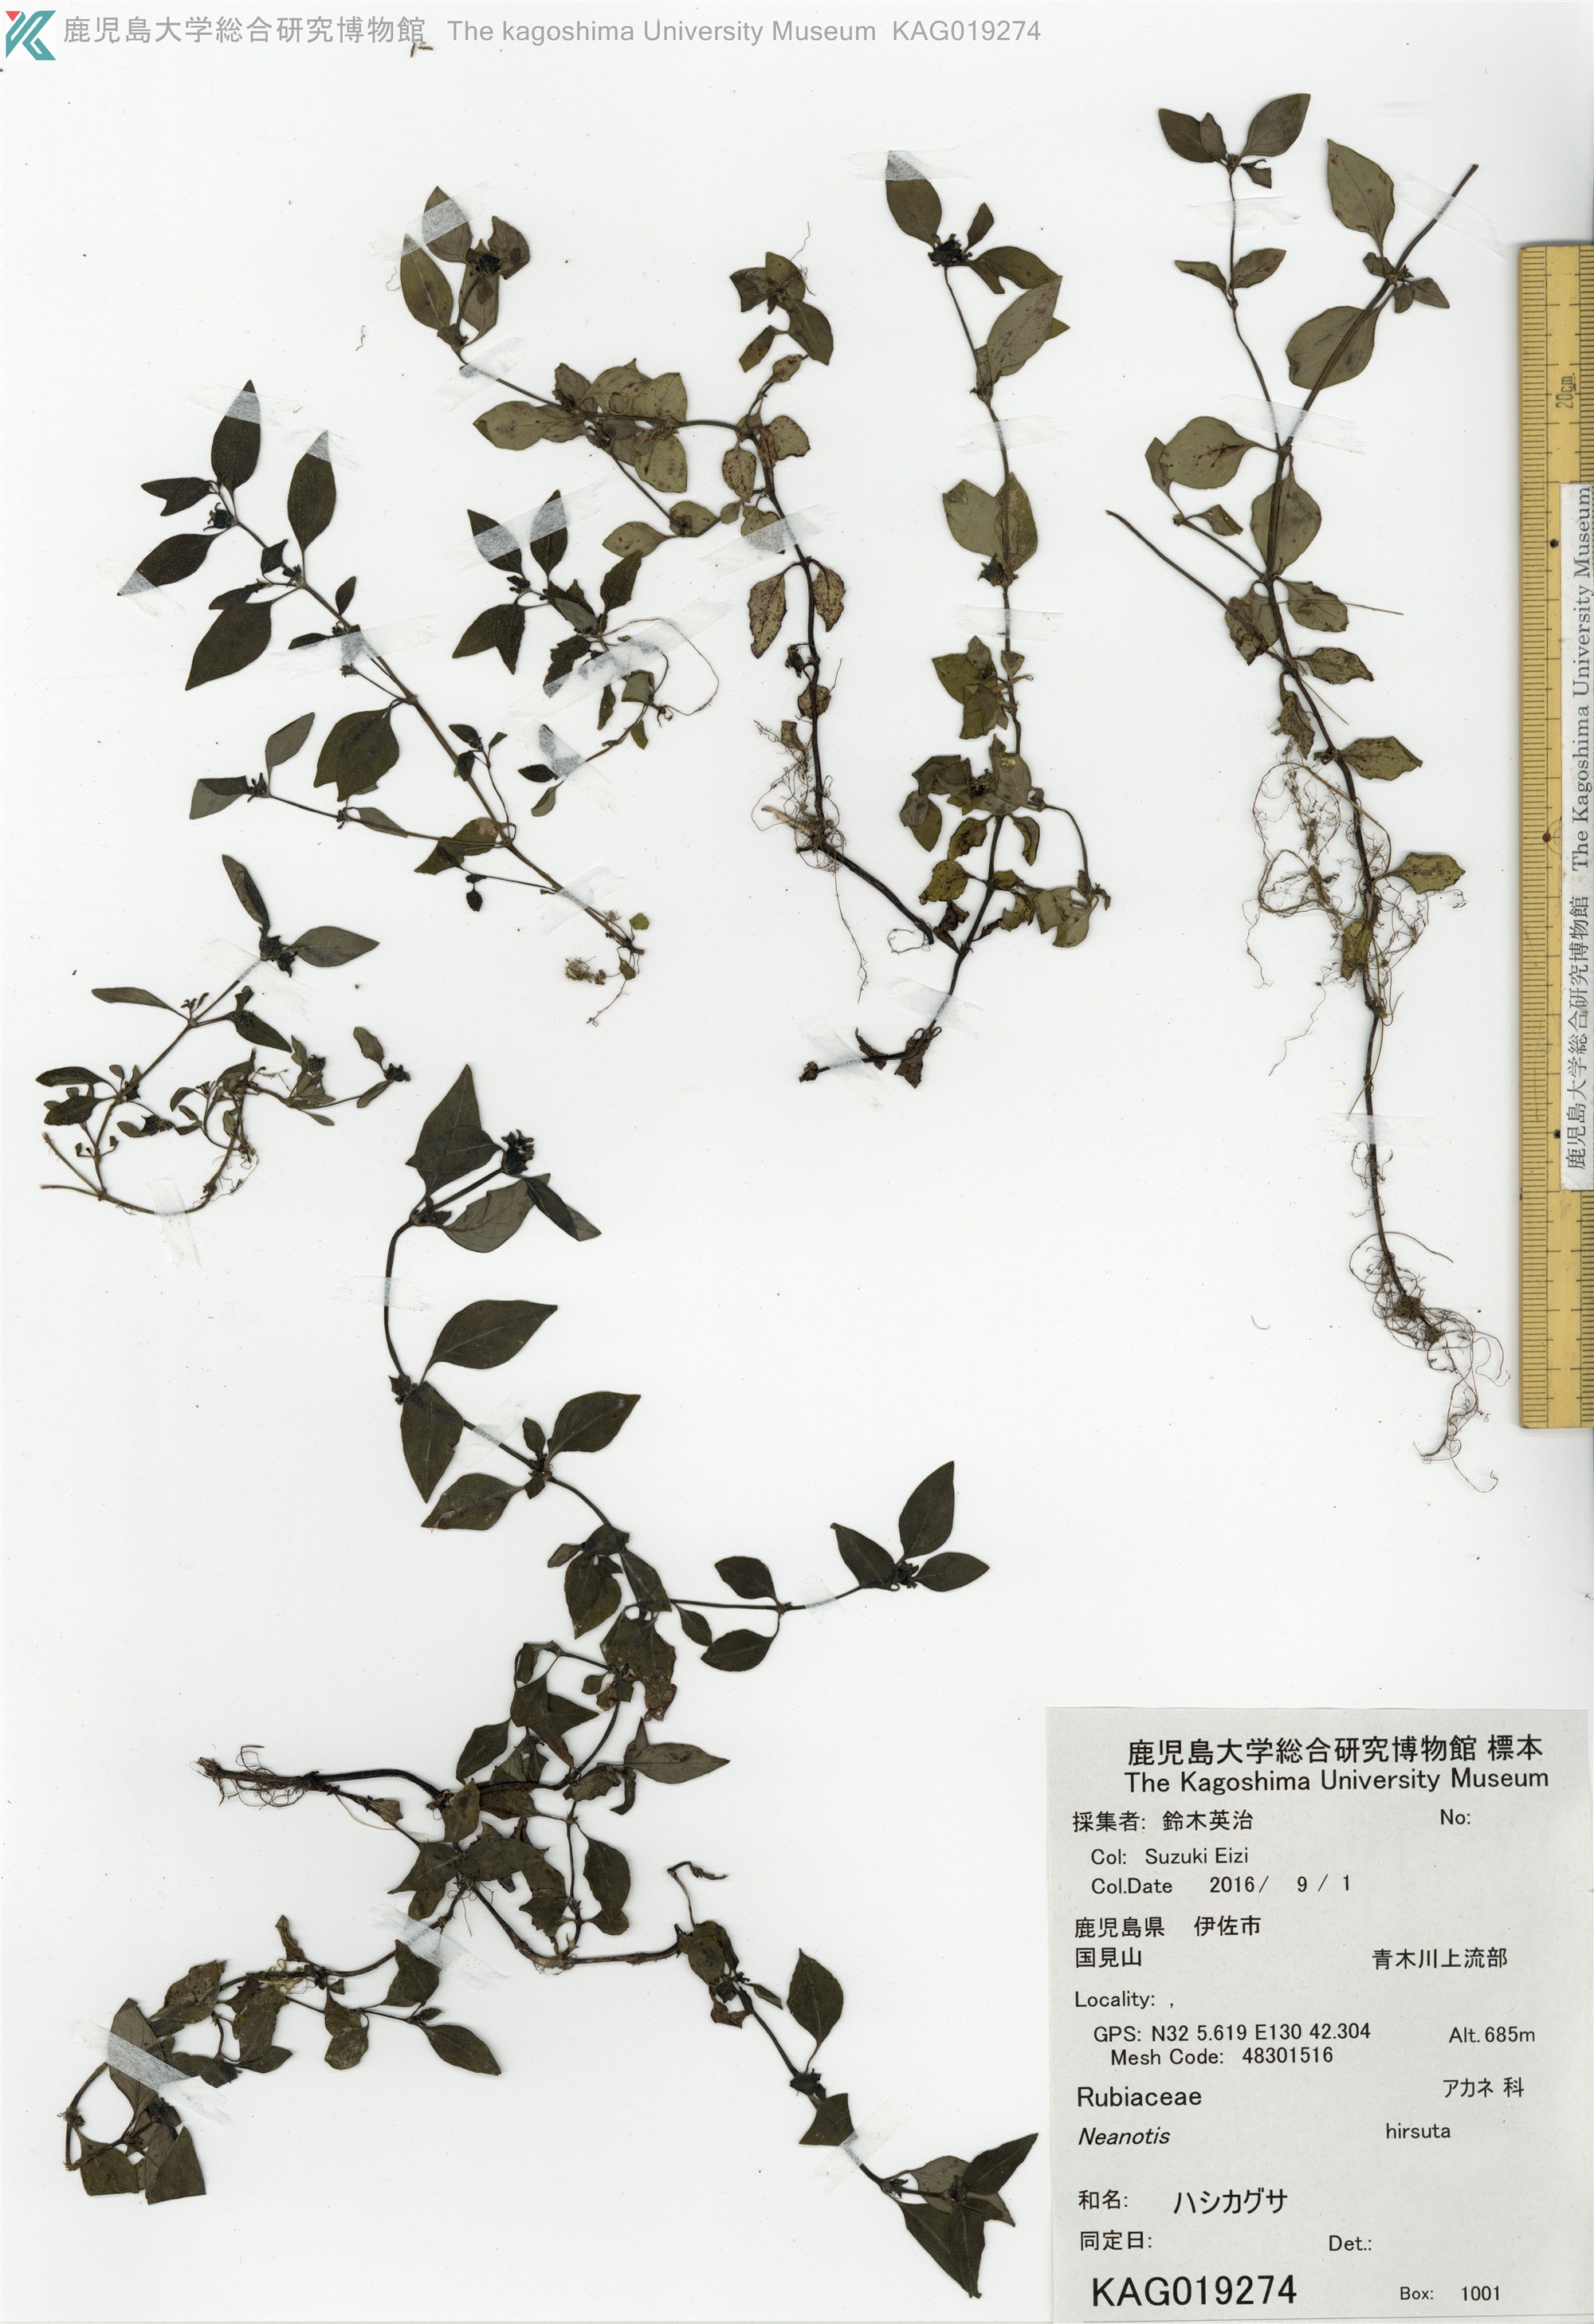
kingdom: Plantae
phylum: Tracheophyta
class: Magnoliopsida
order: Gentianales
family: Rubiaceae
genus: Neanotis
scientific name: Neanotis hirsuta
